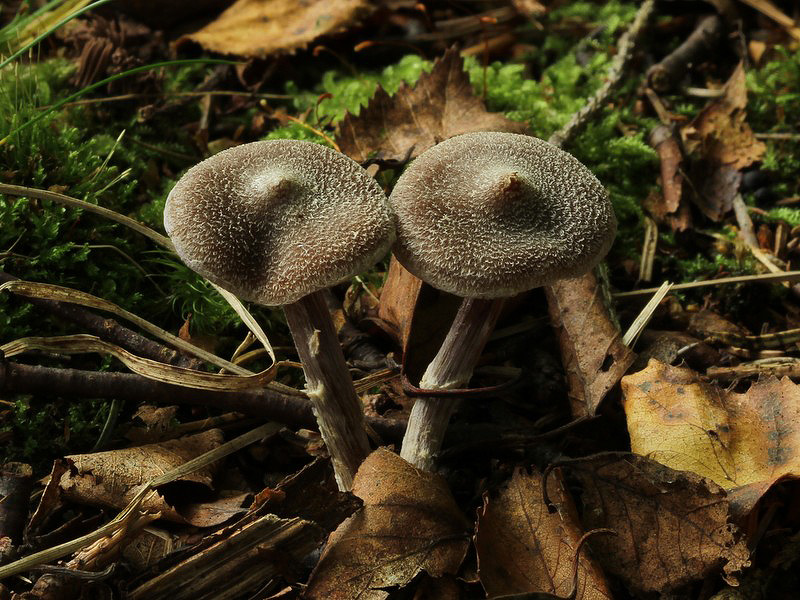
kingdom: Fungi
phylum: Basidiomycota
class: Agaricomycetes
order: Agaricales
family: Cortinariaceae
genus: Cortinarius
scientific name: Cortinarius
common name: pelargonie-slørhat
